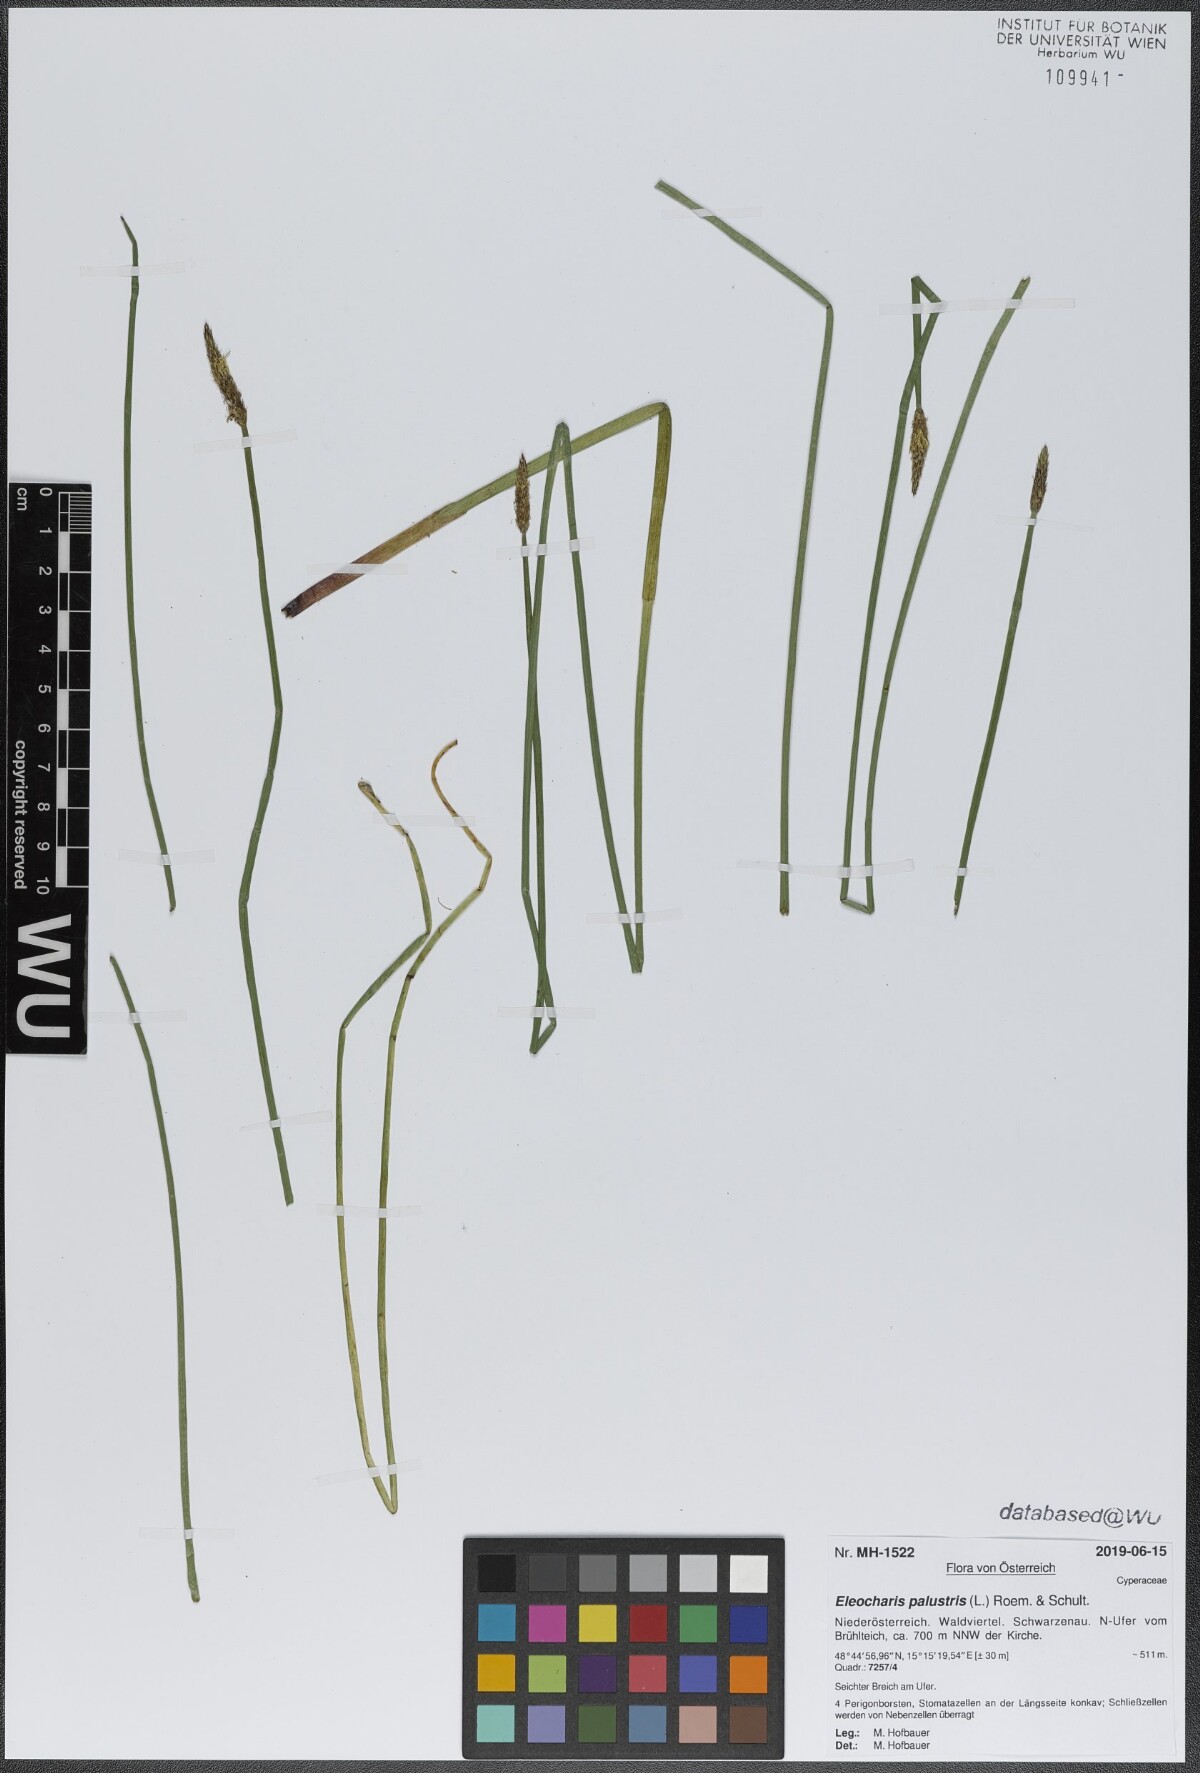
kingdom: Plantae
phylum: Tracheophyta
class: Liliopsida
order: Poales
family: Cyperaceae
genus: Eleocharis
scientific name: Eleocharis palustris
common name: Common spike-rush
